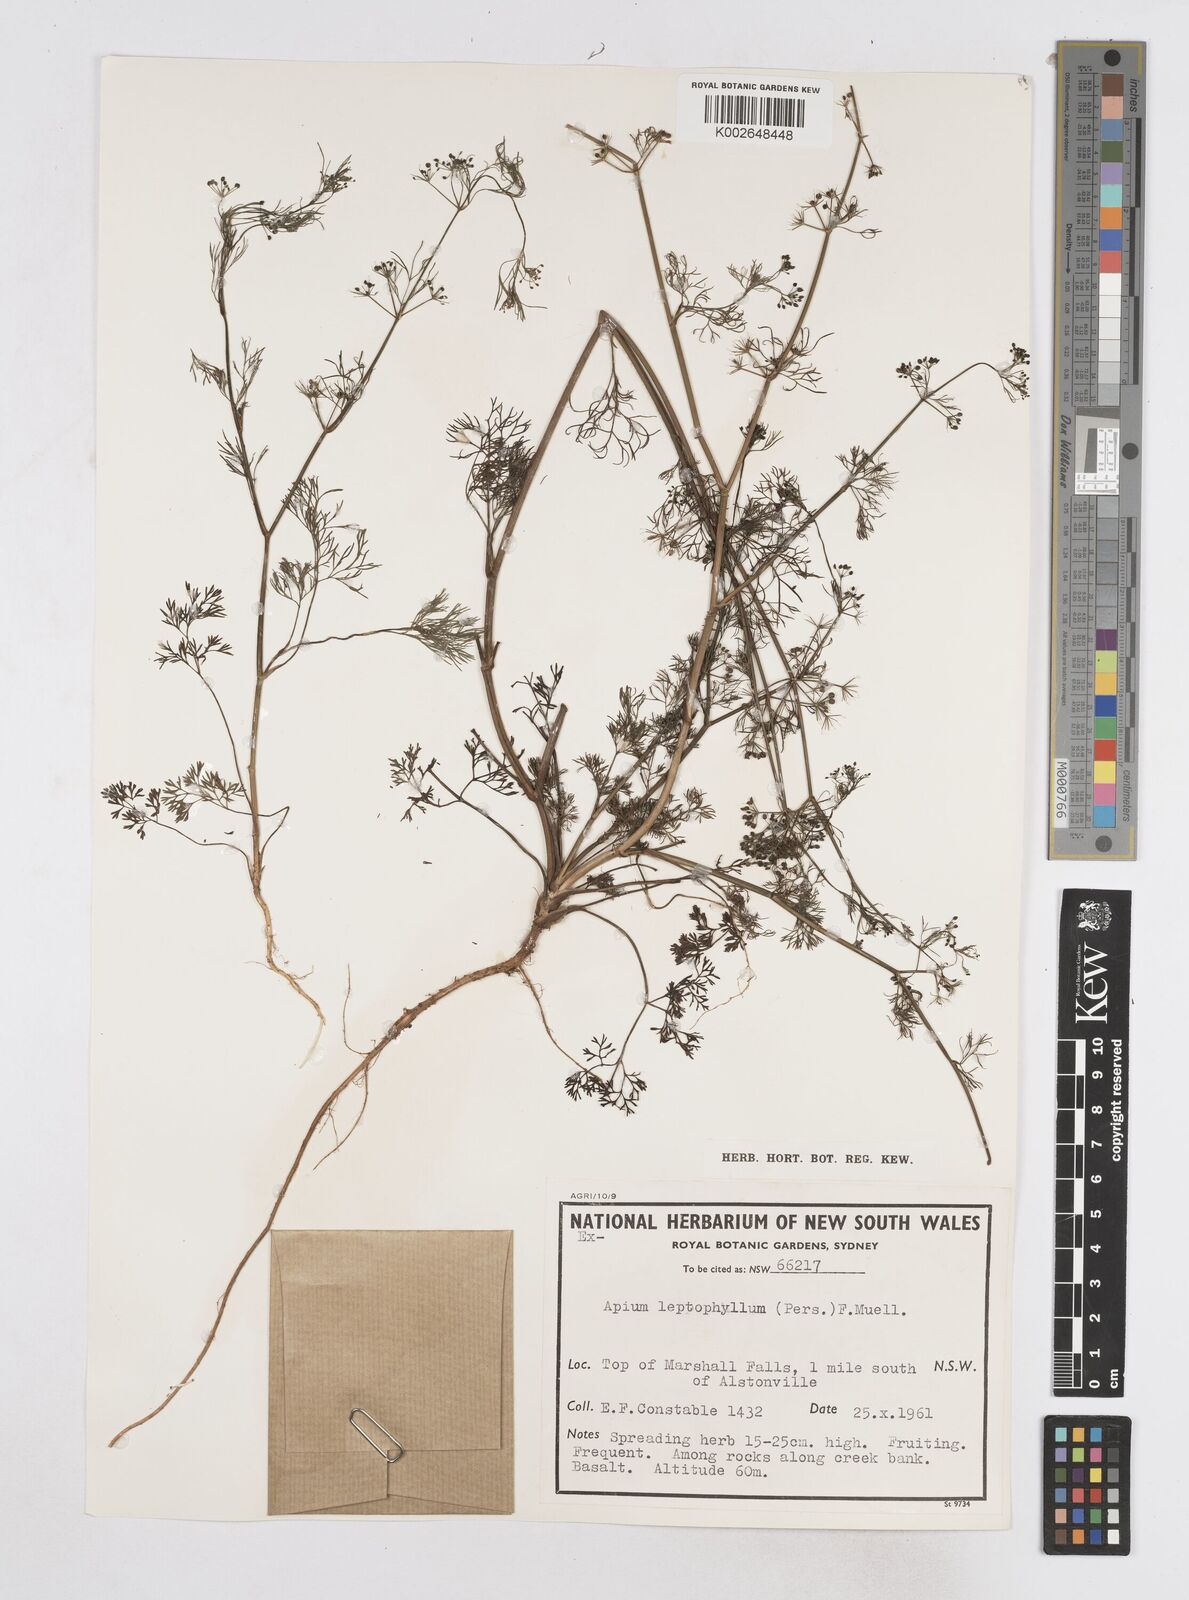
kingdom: Plantae
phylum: Tracheophyta
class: Magnoliopsida
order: Apiales
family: Apiaceae
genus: Cyclospermum
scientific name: Cyclospermum leptophyllum
